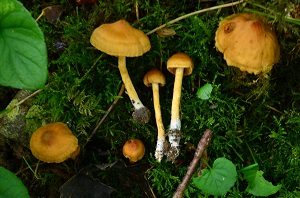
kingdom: Fungi
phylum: Basidiomycota
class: Agaricomycetes
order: Agaricales
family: Cortinariaceae
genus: Cortinarius
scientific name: Cortinarius saniosus
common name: gultrævlet slørhat
